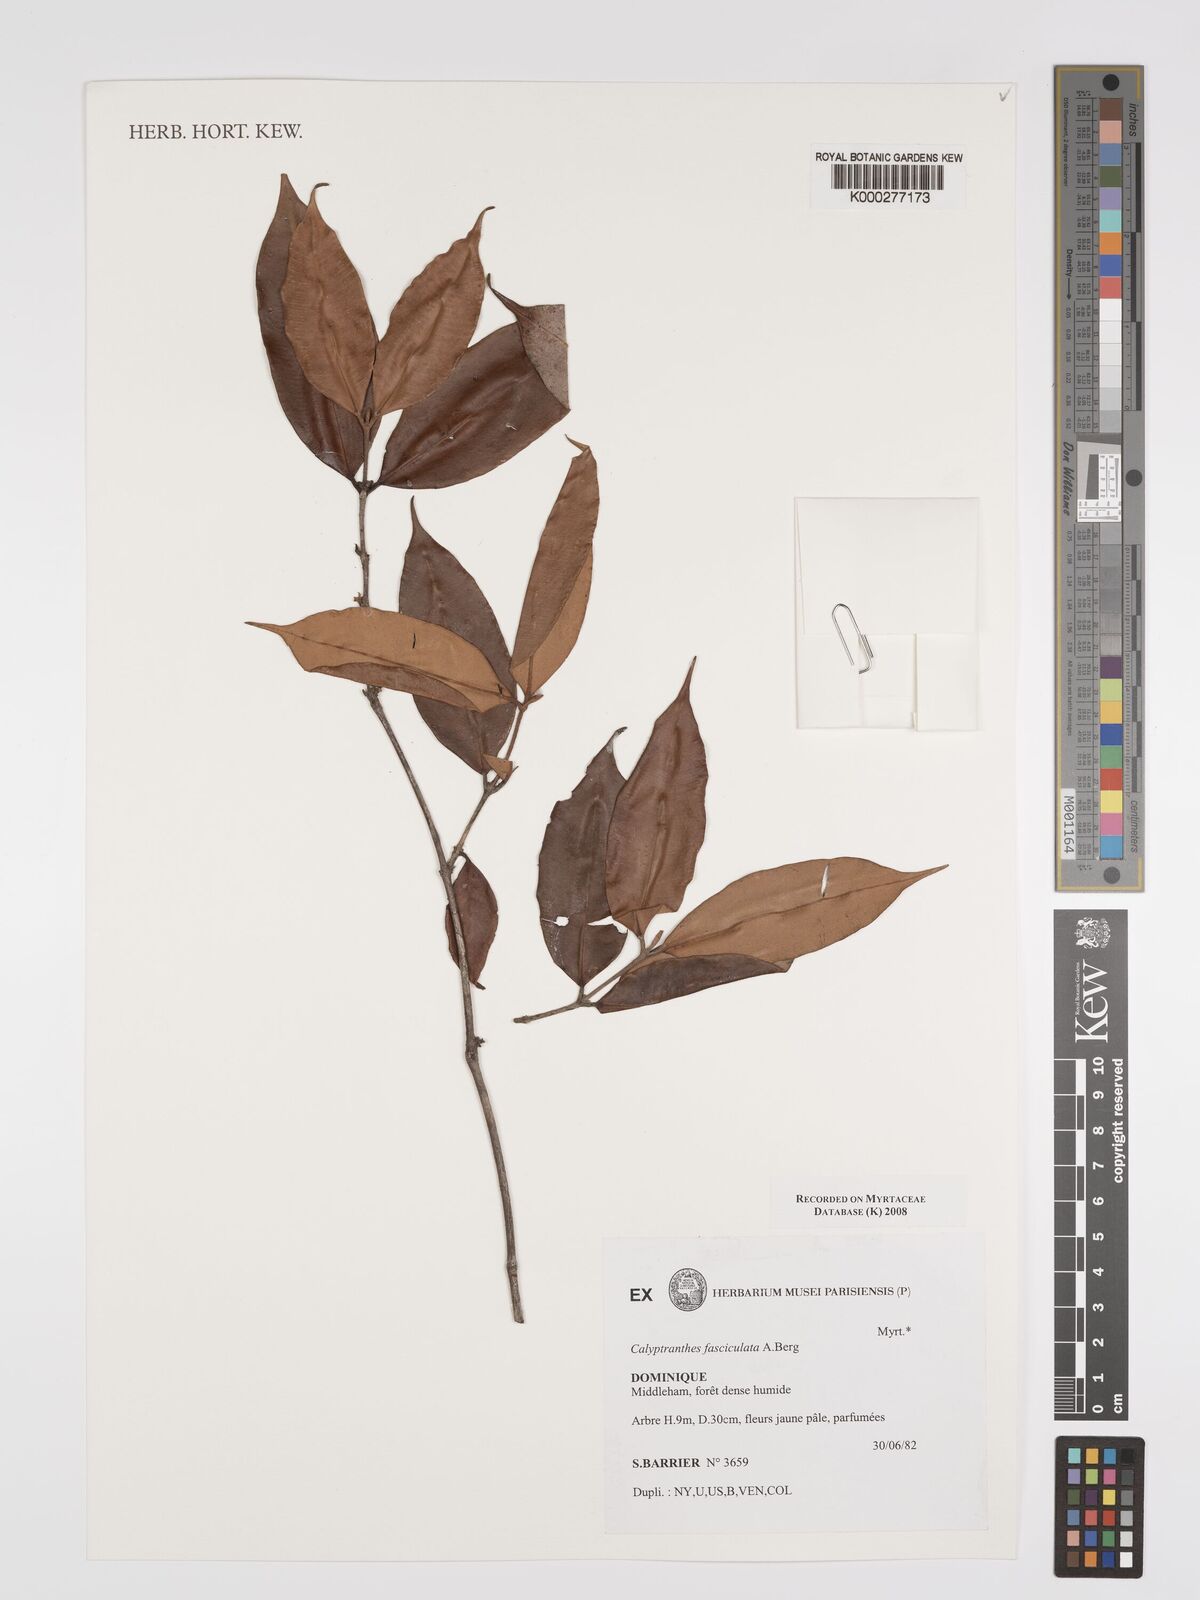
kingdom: Plantae
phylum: Tracheophyta
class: Magnoliopsida
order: Myrtales
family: Myrtaceae
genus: Myrcia
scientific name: Myrcia fasciculata
